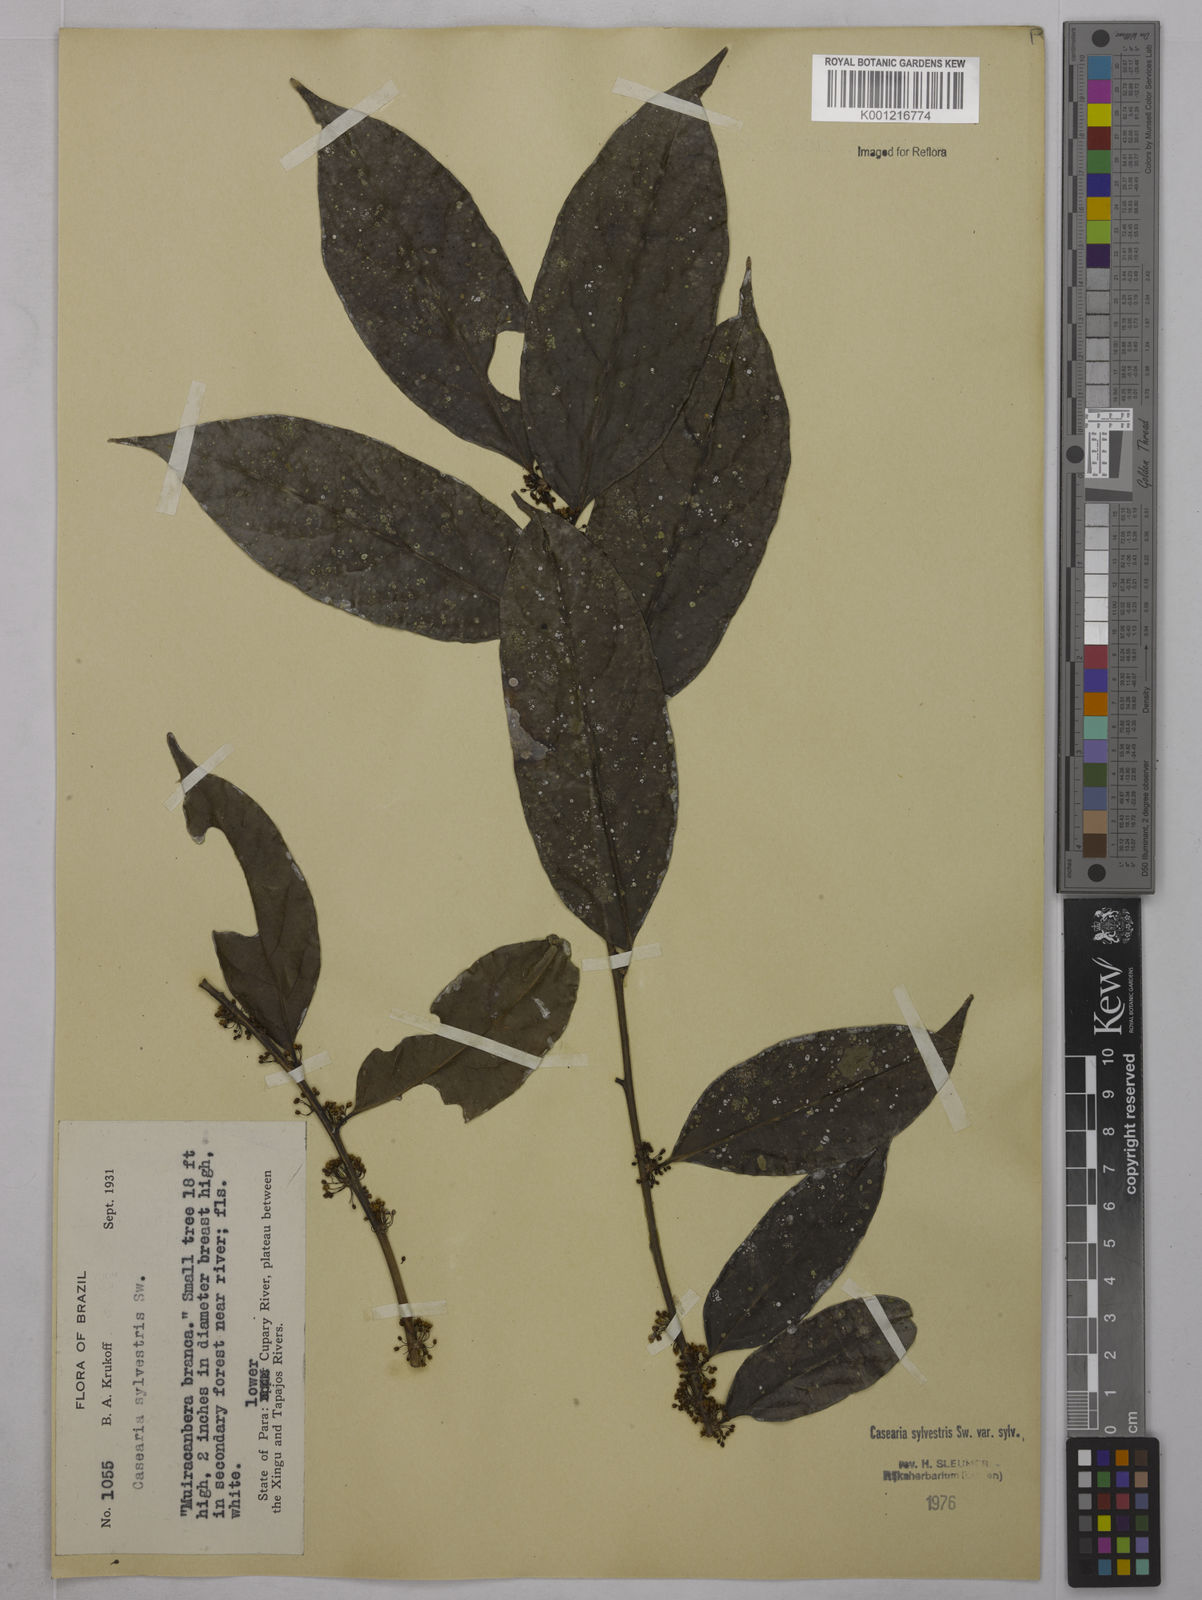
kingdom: Plantae
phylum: Tracheophyta
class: Magnoliopsida
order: Malpighiales
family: Salicaceae
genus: Casearia
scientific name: Casearia sylvestris
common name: Wild sage
